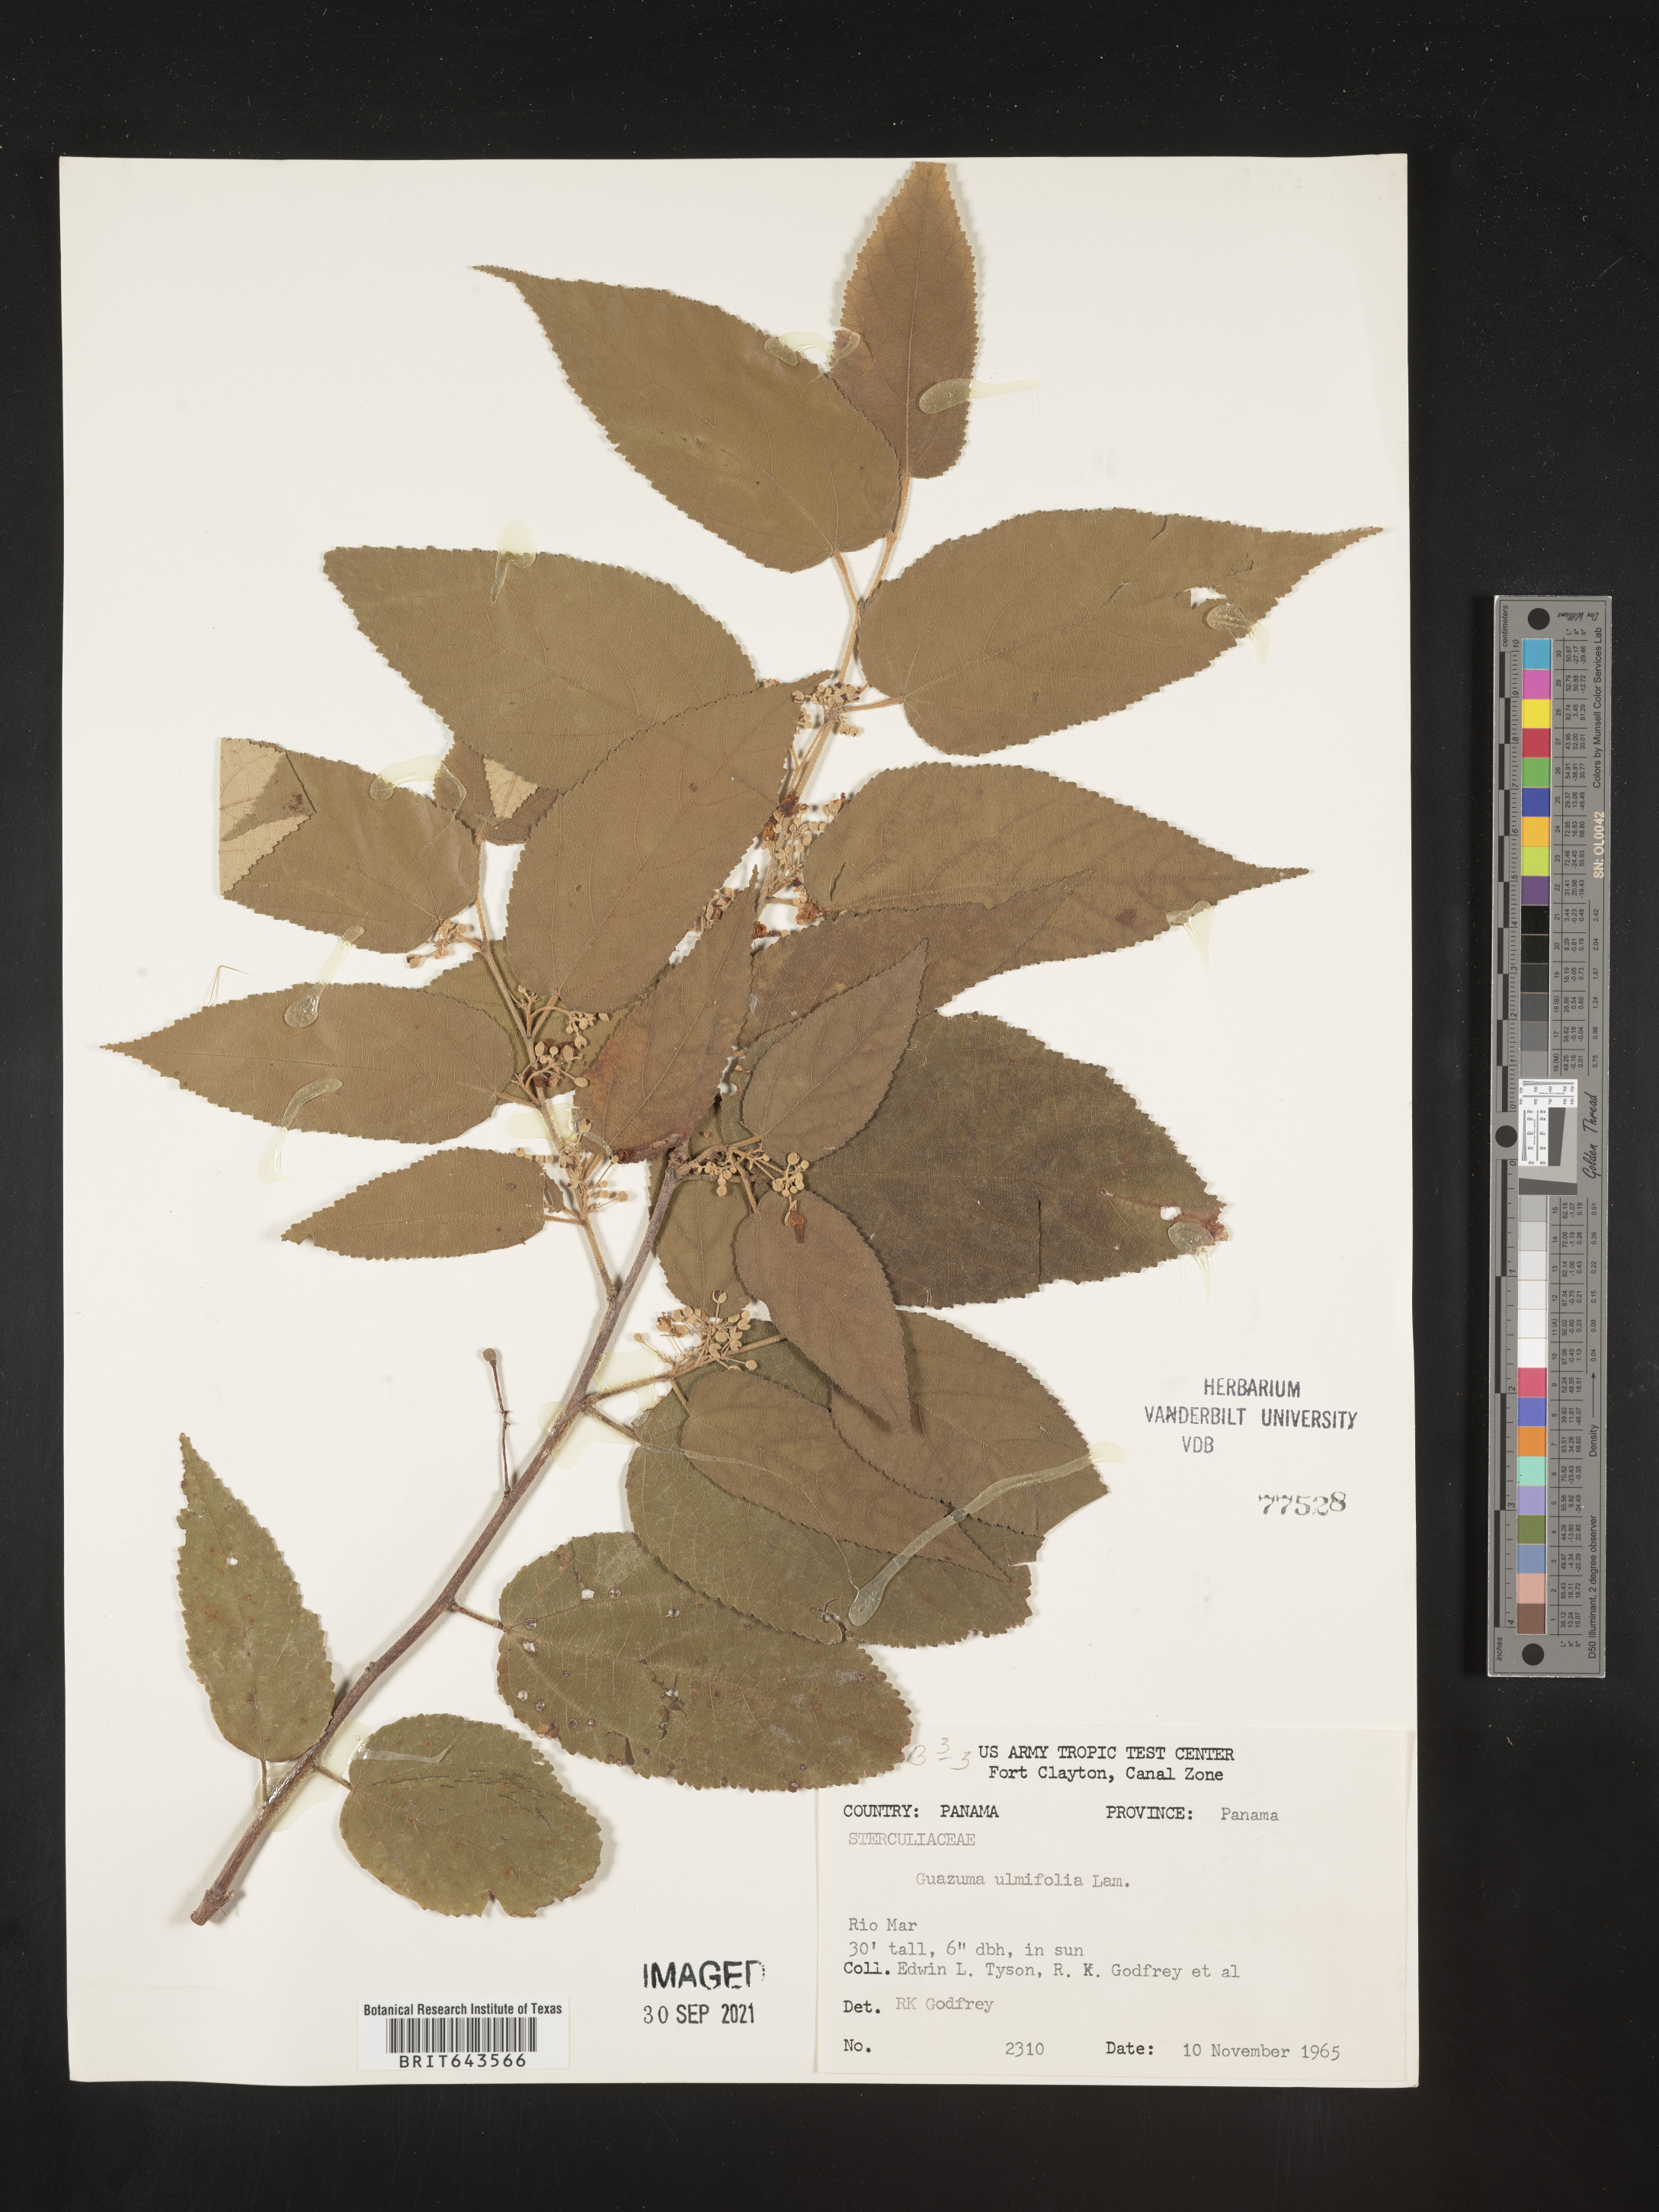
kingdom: Plantae
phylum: Tracheophyta
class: Magnoliopsida
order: Malvales
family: Malvaceae
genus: Guazuma
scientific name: Guazuma
